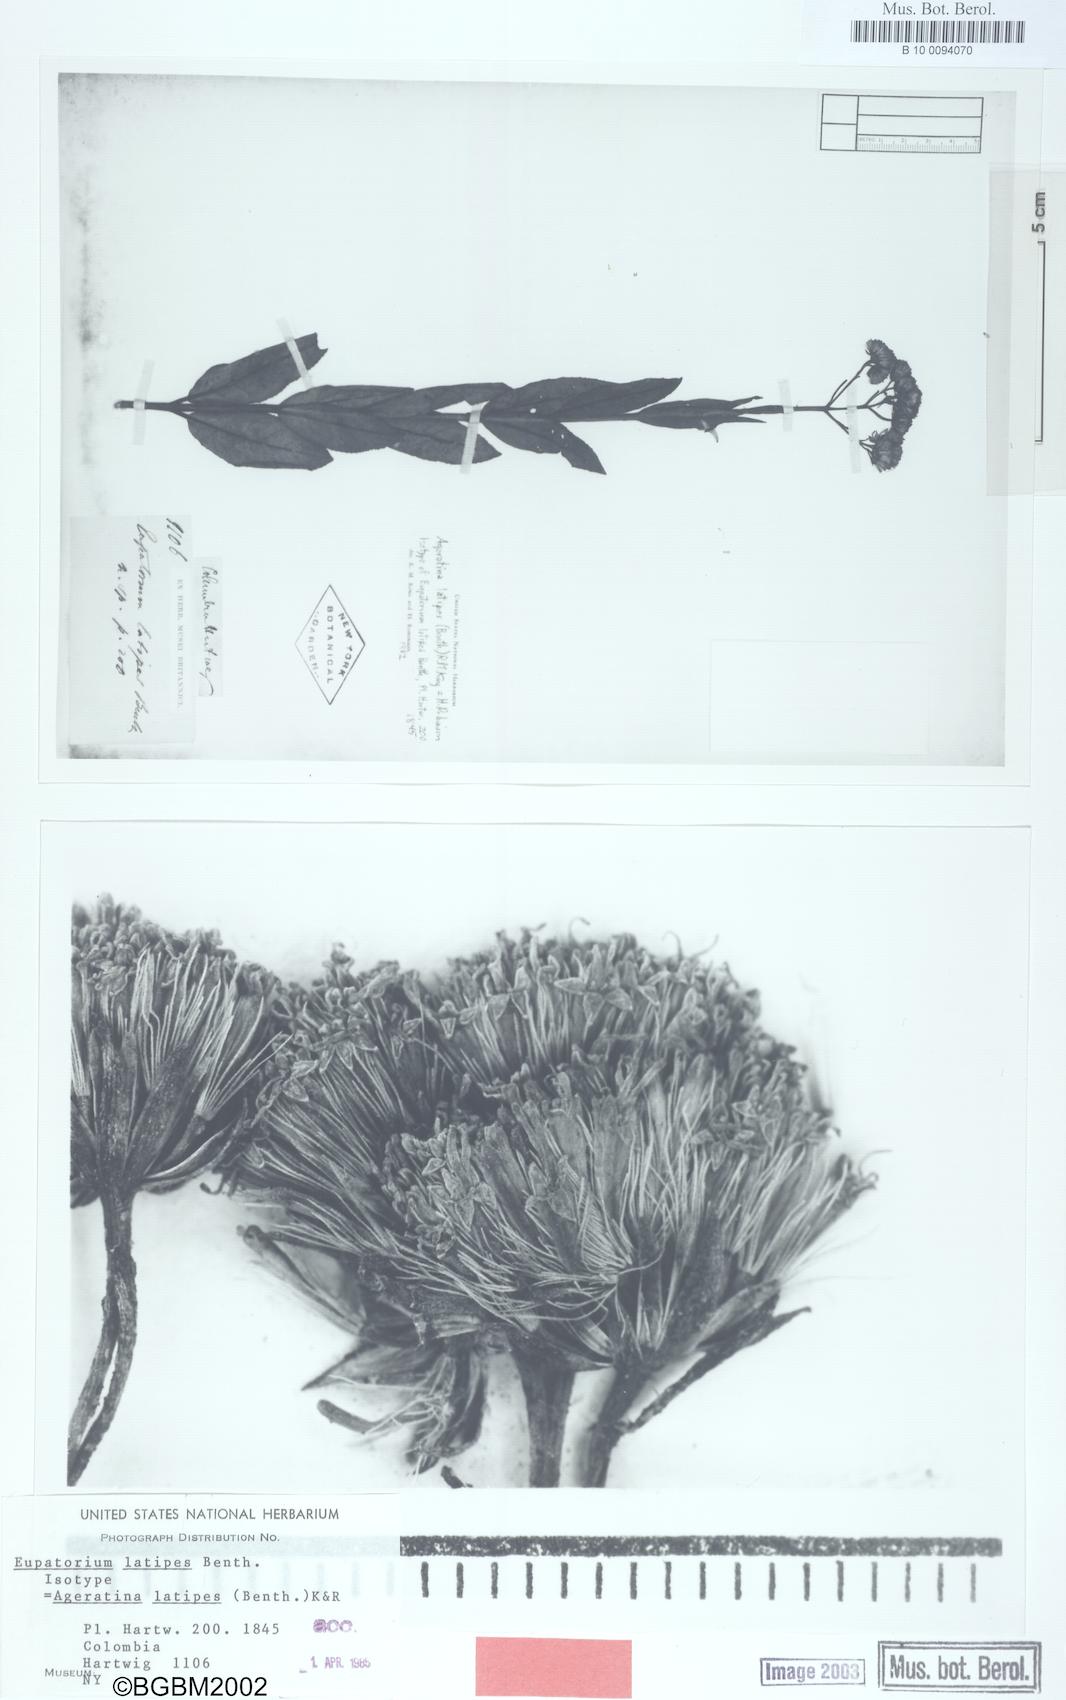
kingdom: Plantae
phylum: Tracheophyta
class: Magnoliopsida
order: Asterales
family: Asteraceae
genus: Ageratina
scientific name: Ageratina latipes
